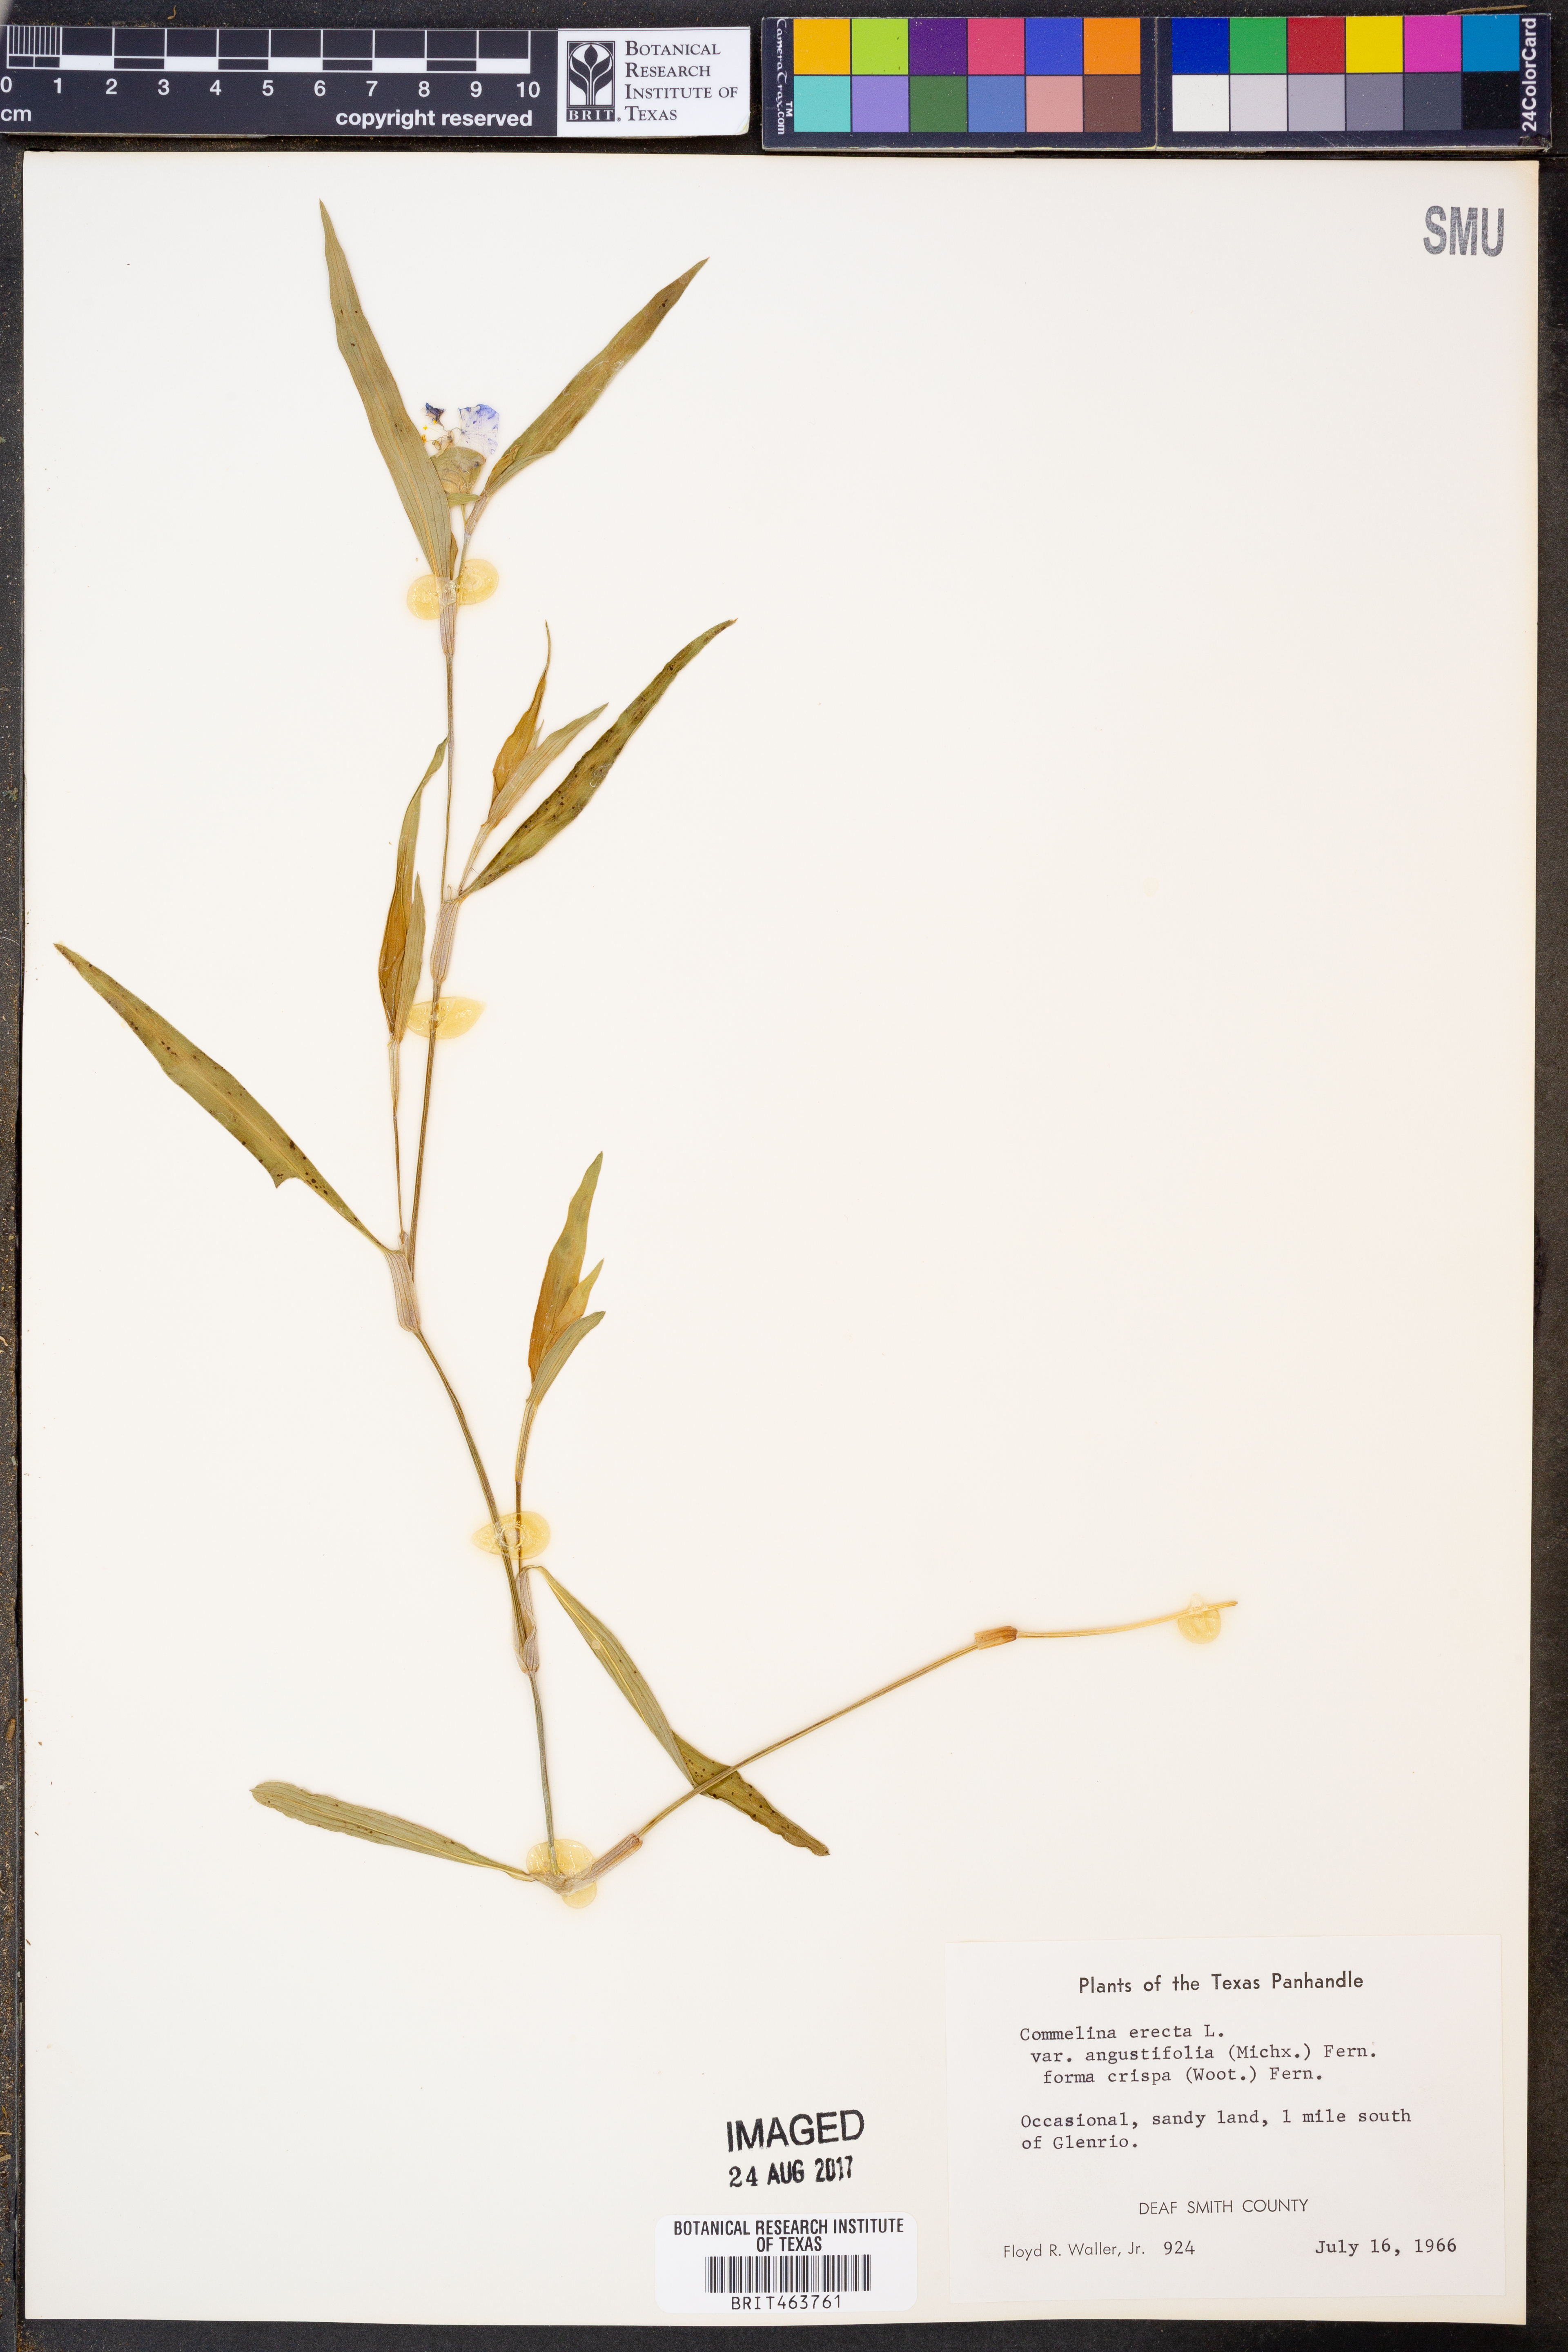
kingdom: Plantae
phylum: Tracheophyta
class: Liliopsida
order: Commelinales
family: Commelinaceae
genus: Commelina
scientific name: Commelina erecta
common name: Blousel blommetjie
